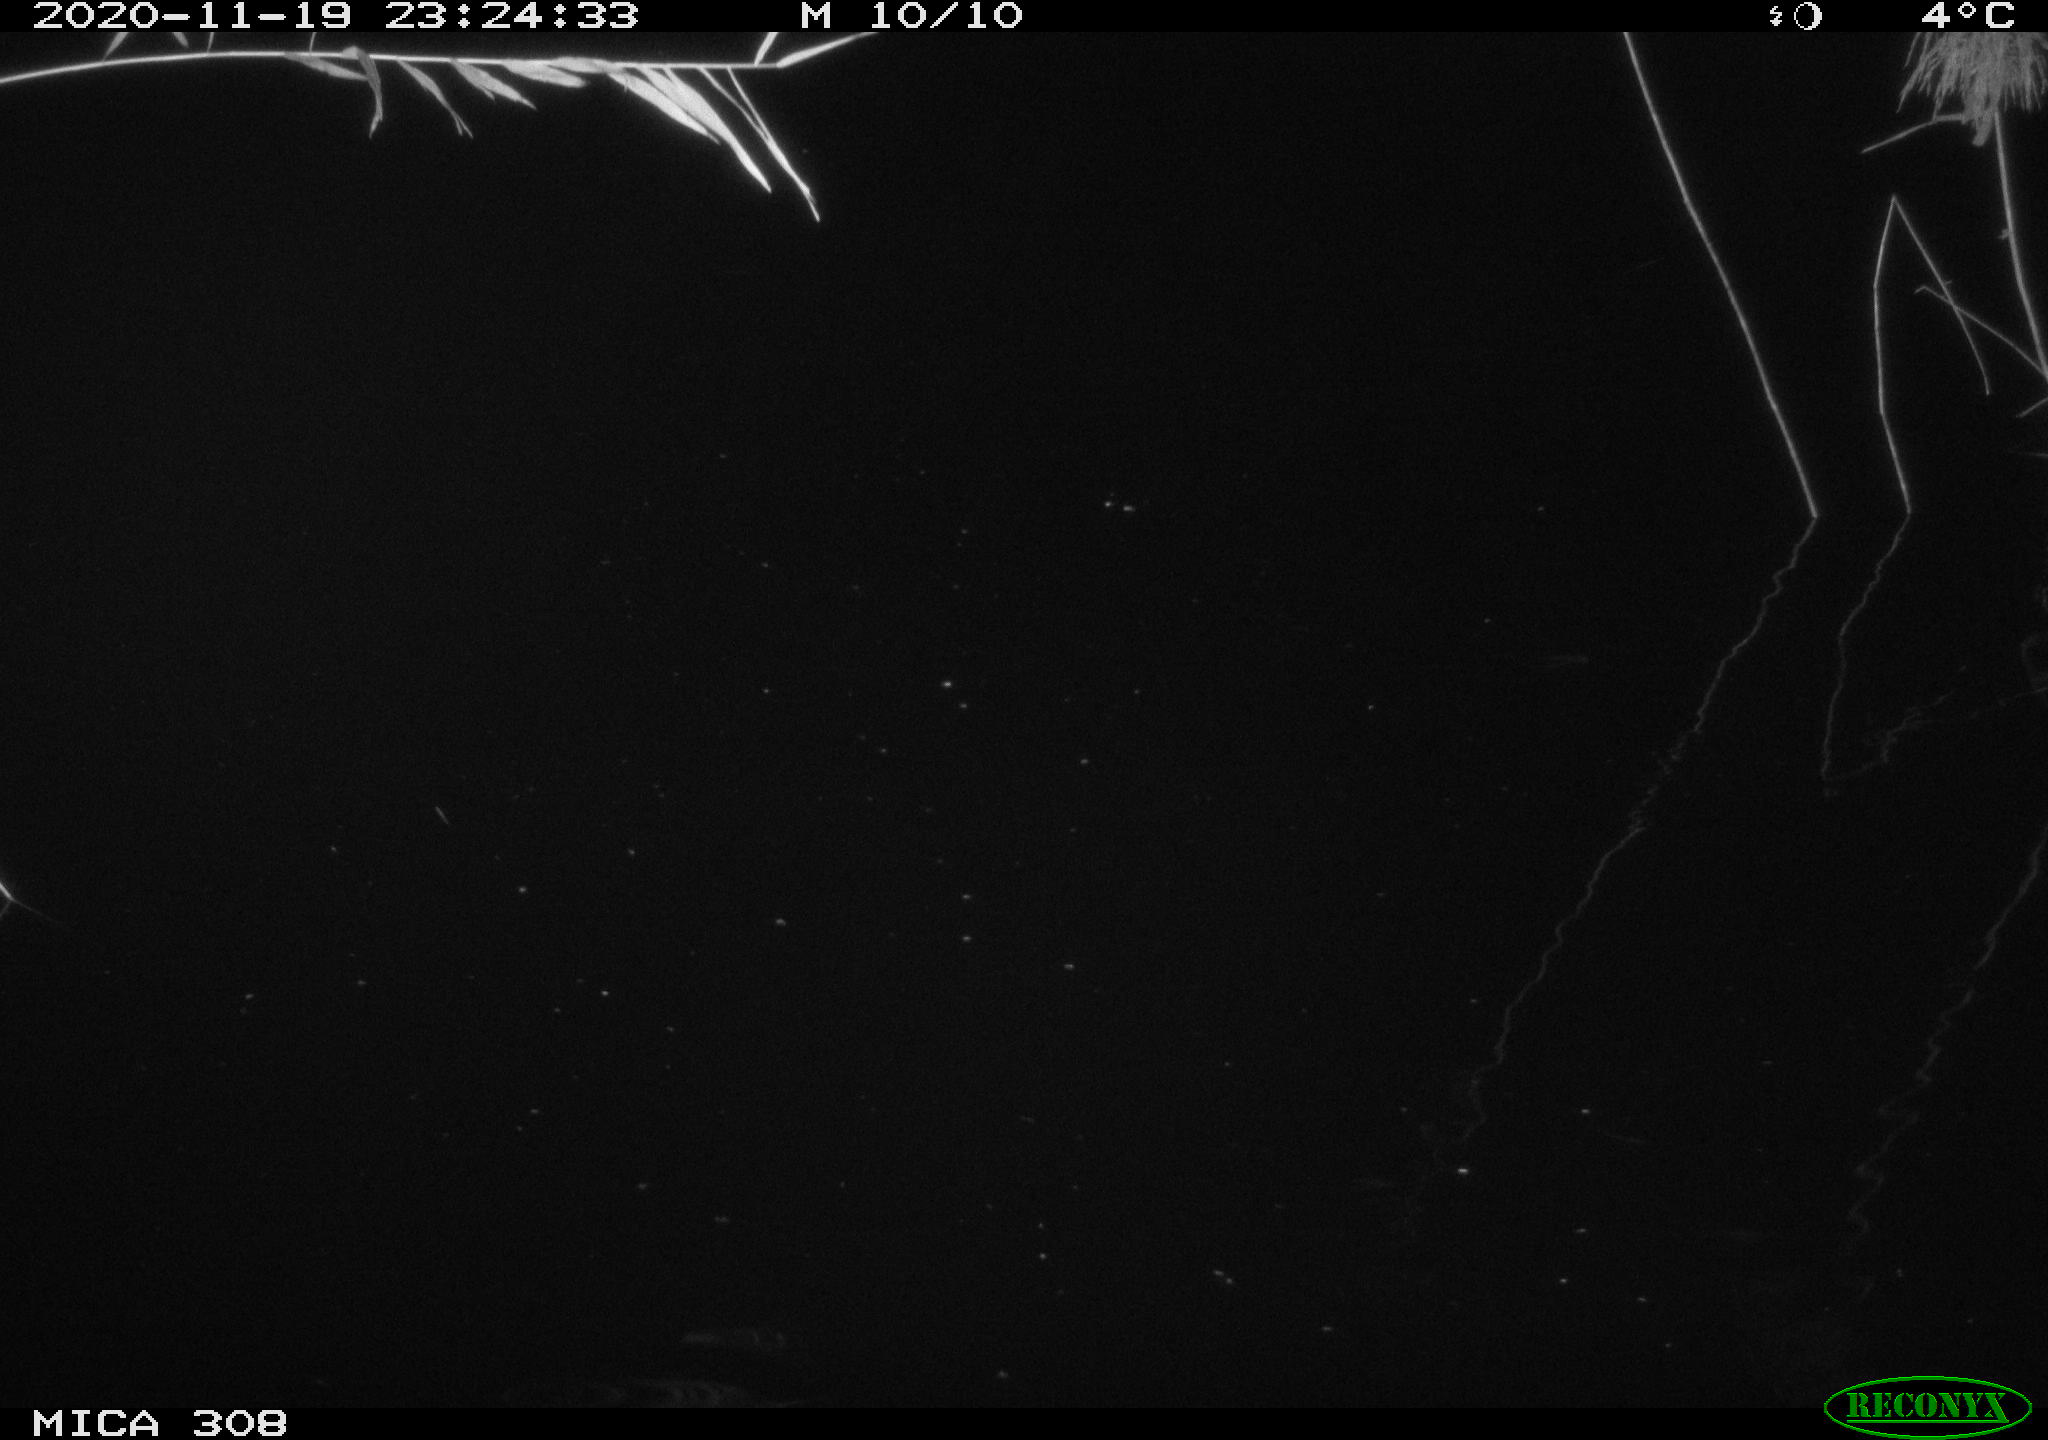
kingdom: Animalia
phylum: Chordata
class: Mammalia
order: Rodentia
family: Cricetidae
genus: Ondatra
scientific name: Ondatra zibethicus
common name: Muskrat
